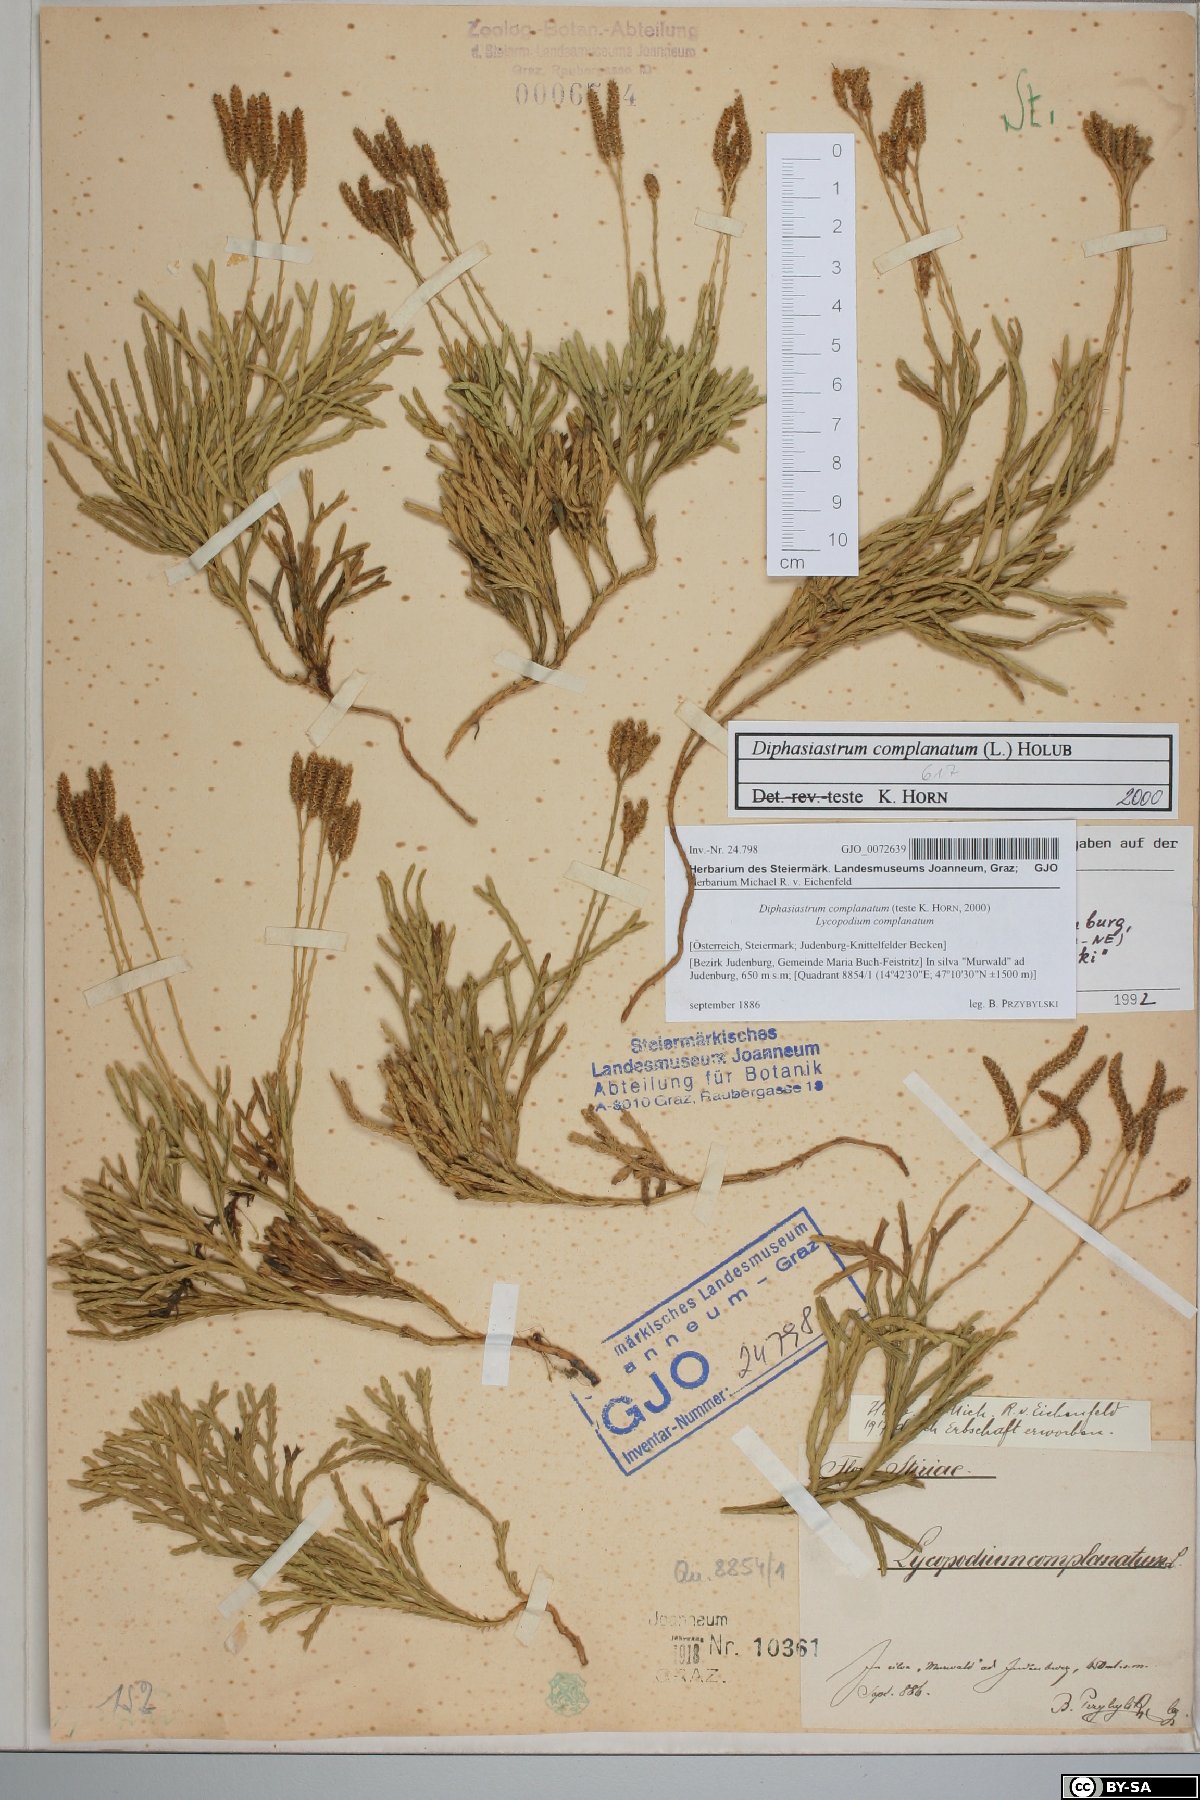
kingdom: Plantae
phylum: Tracheophyta
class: Lycopodiopsida
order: Lycopodiales
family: Lycopodiaceae
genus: Diphasiastrum
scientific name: Diphasiastrum complanatum
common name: Northern running-pine
